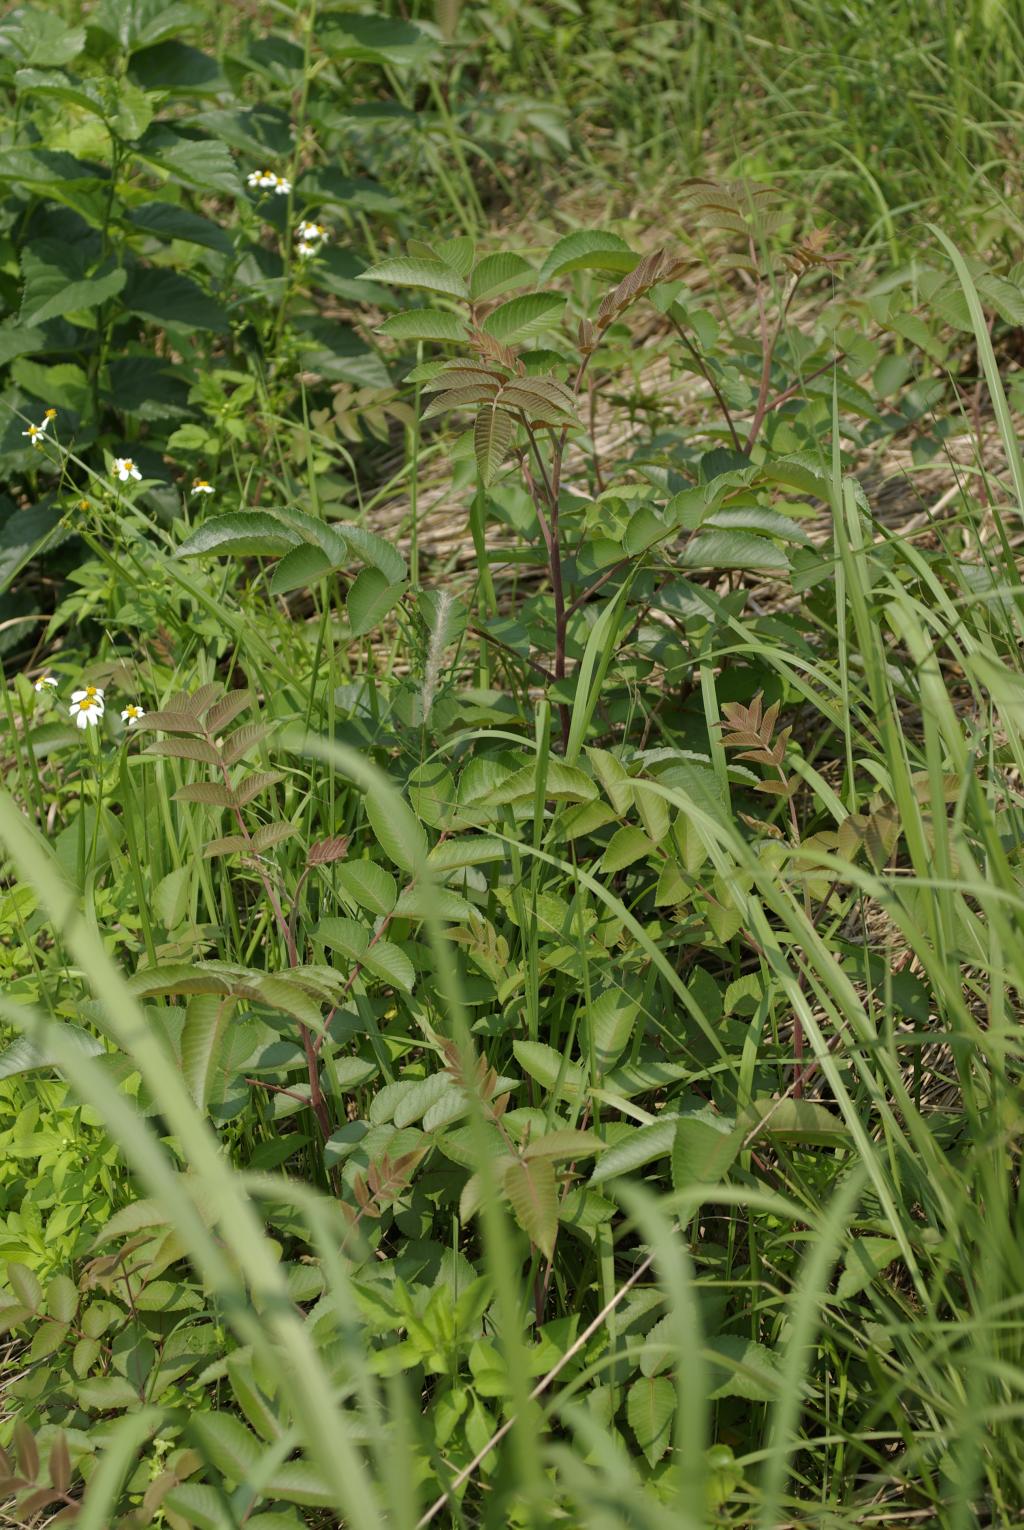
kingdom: Plantae
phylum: Tracheophyta
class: Magnoliopsida
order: Sapindales
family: Anacardiaceae
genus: Rhus
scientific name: Rhus chinensis
